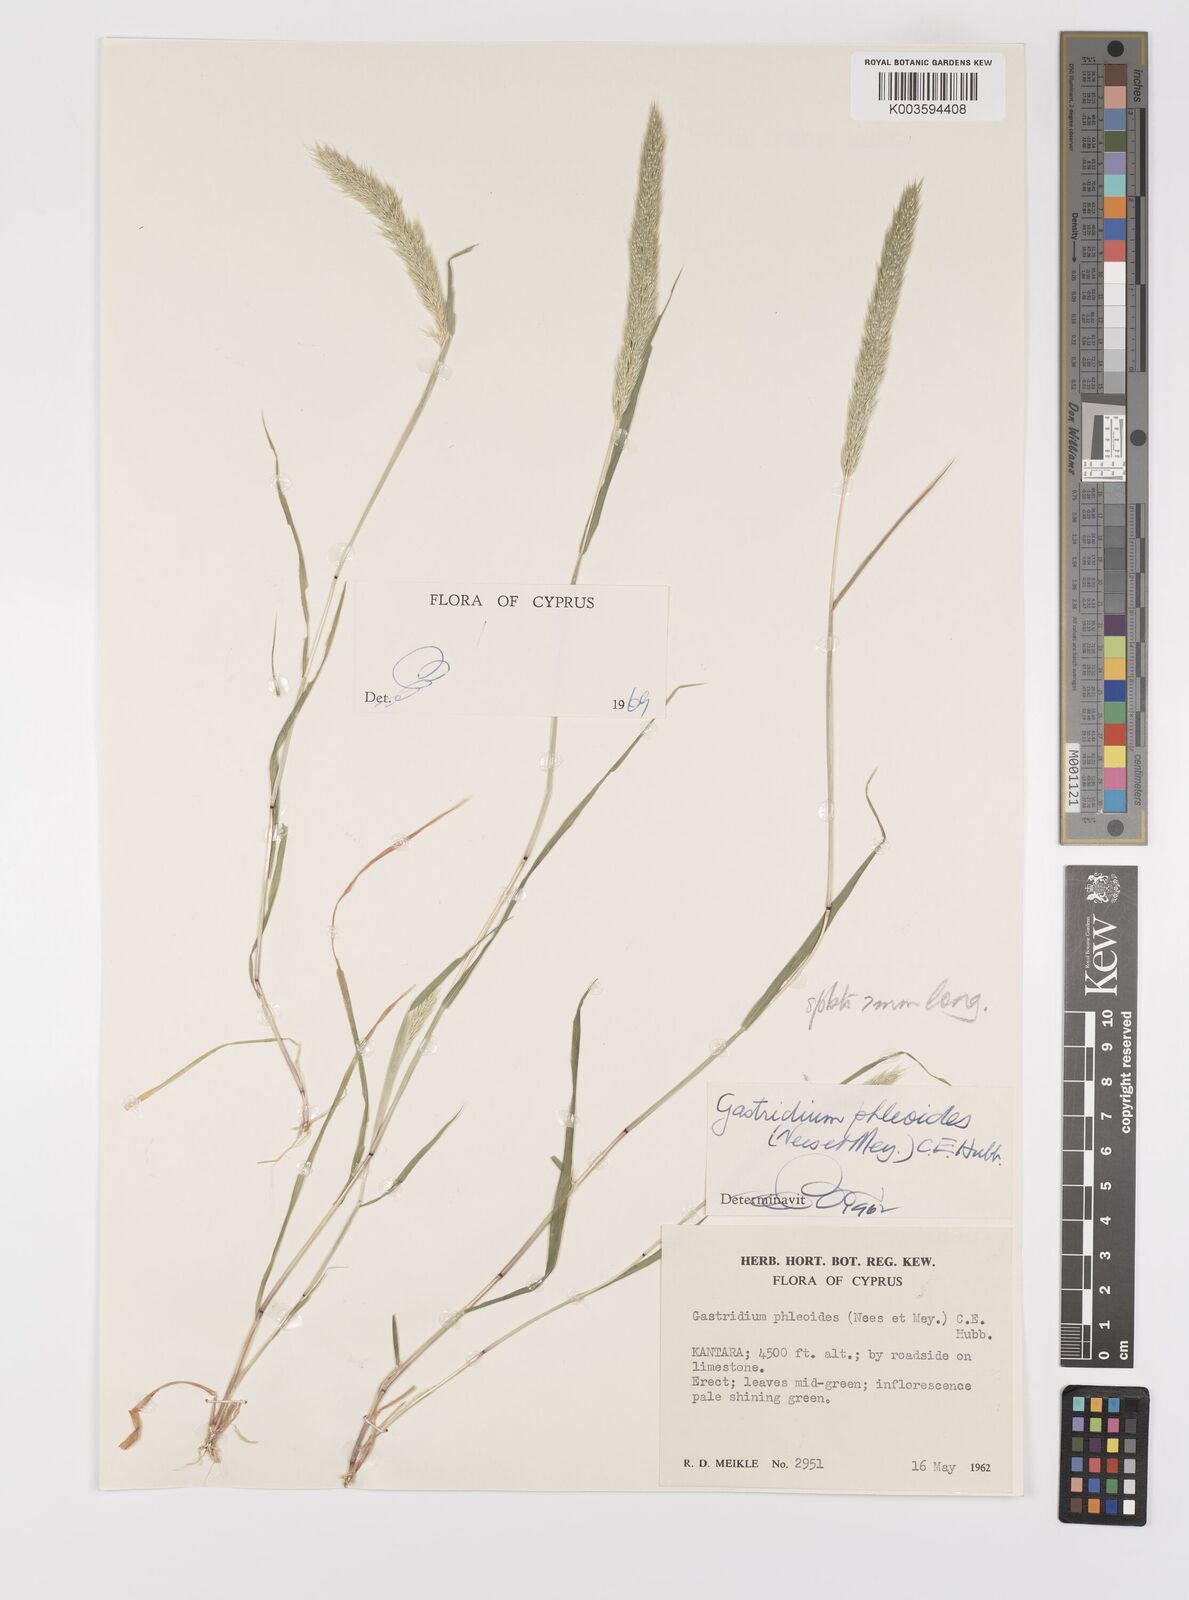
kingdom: Plantae
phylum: Tracheophyta
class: Liliopsida
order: Poales
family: Poaceae
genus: Gastridium
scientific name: Gastridium phleoides
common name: Nit grass
